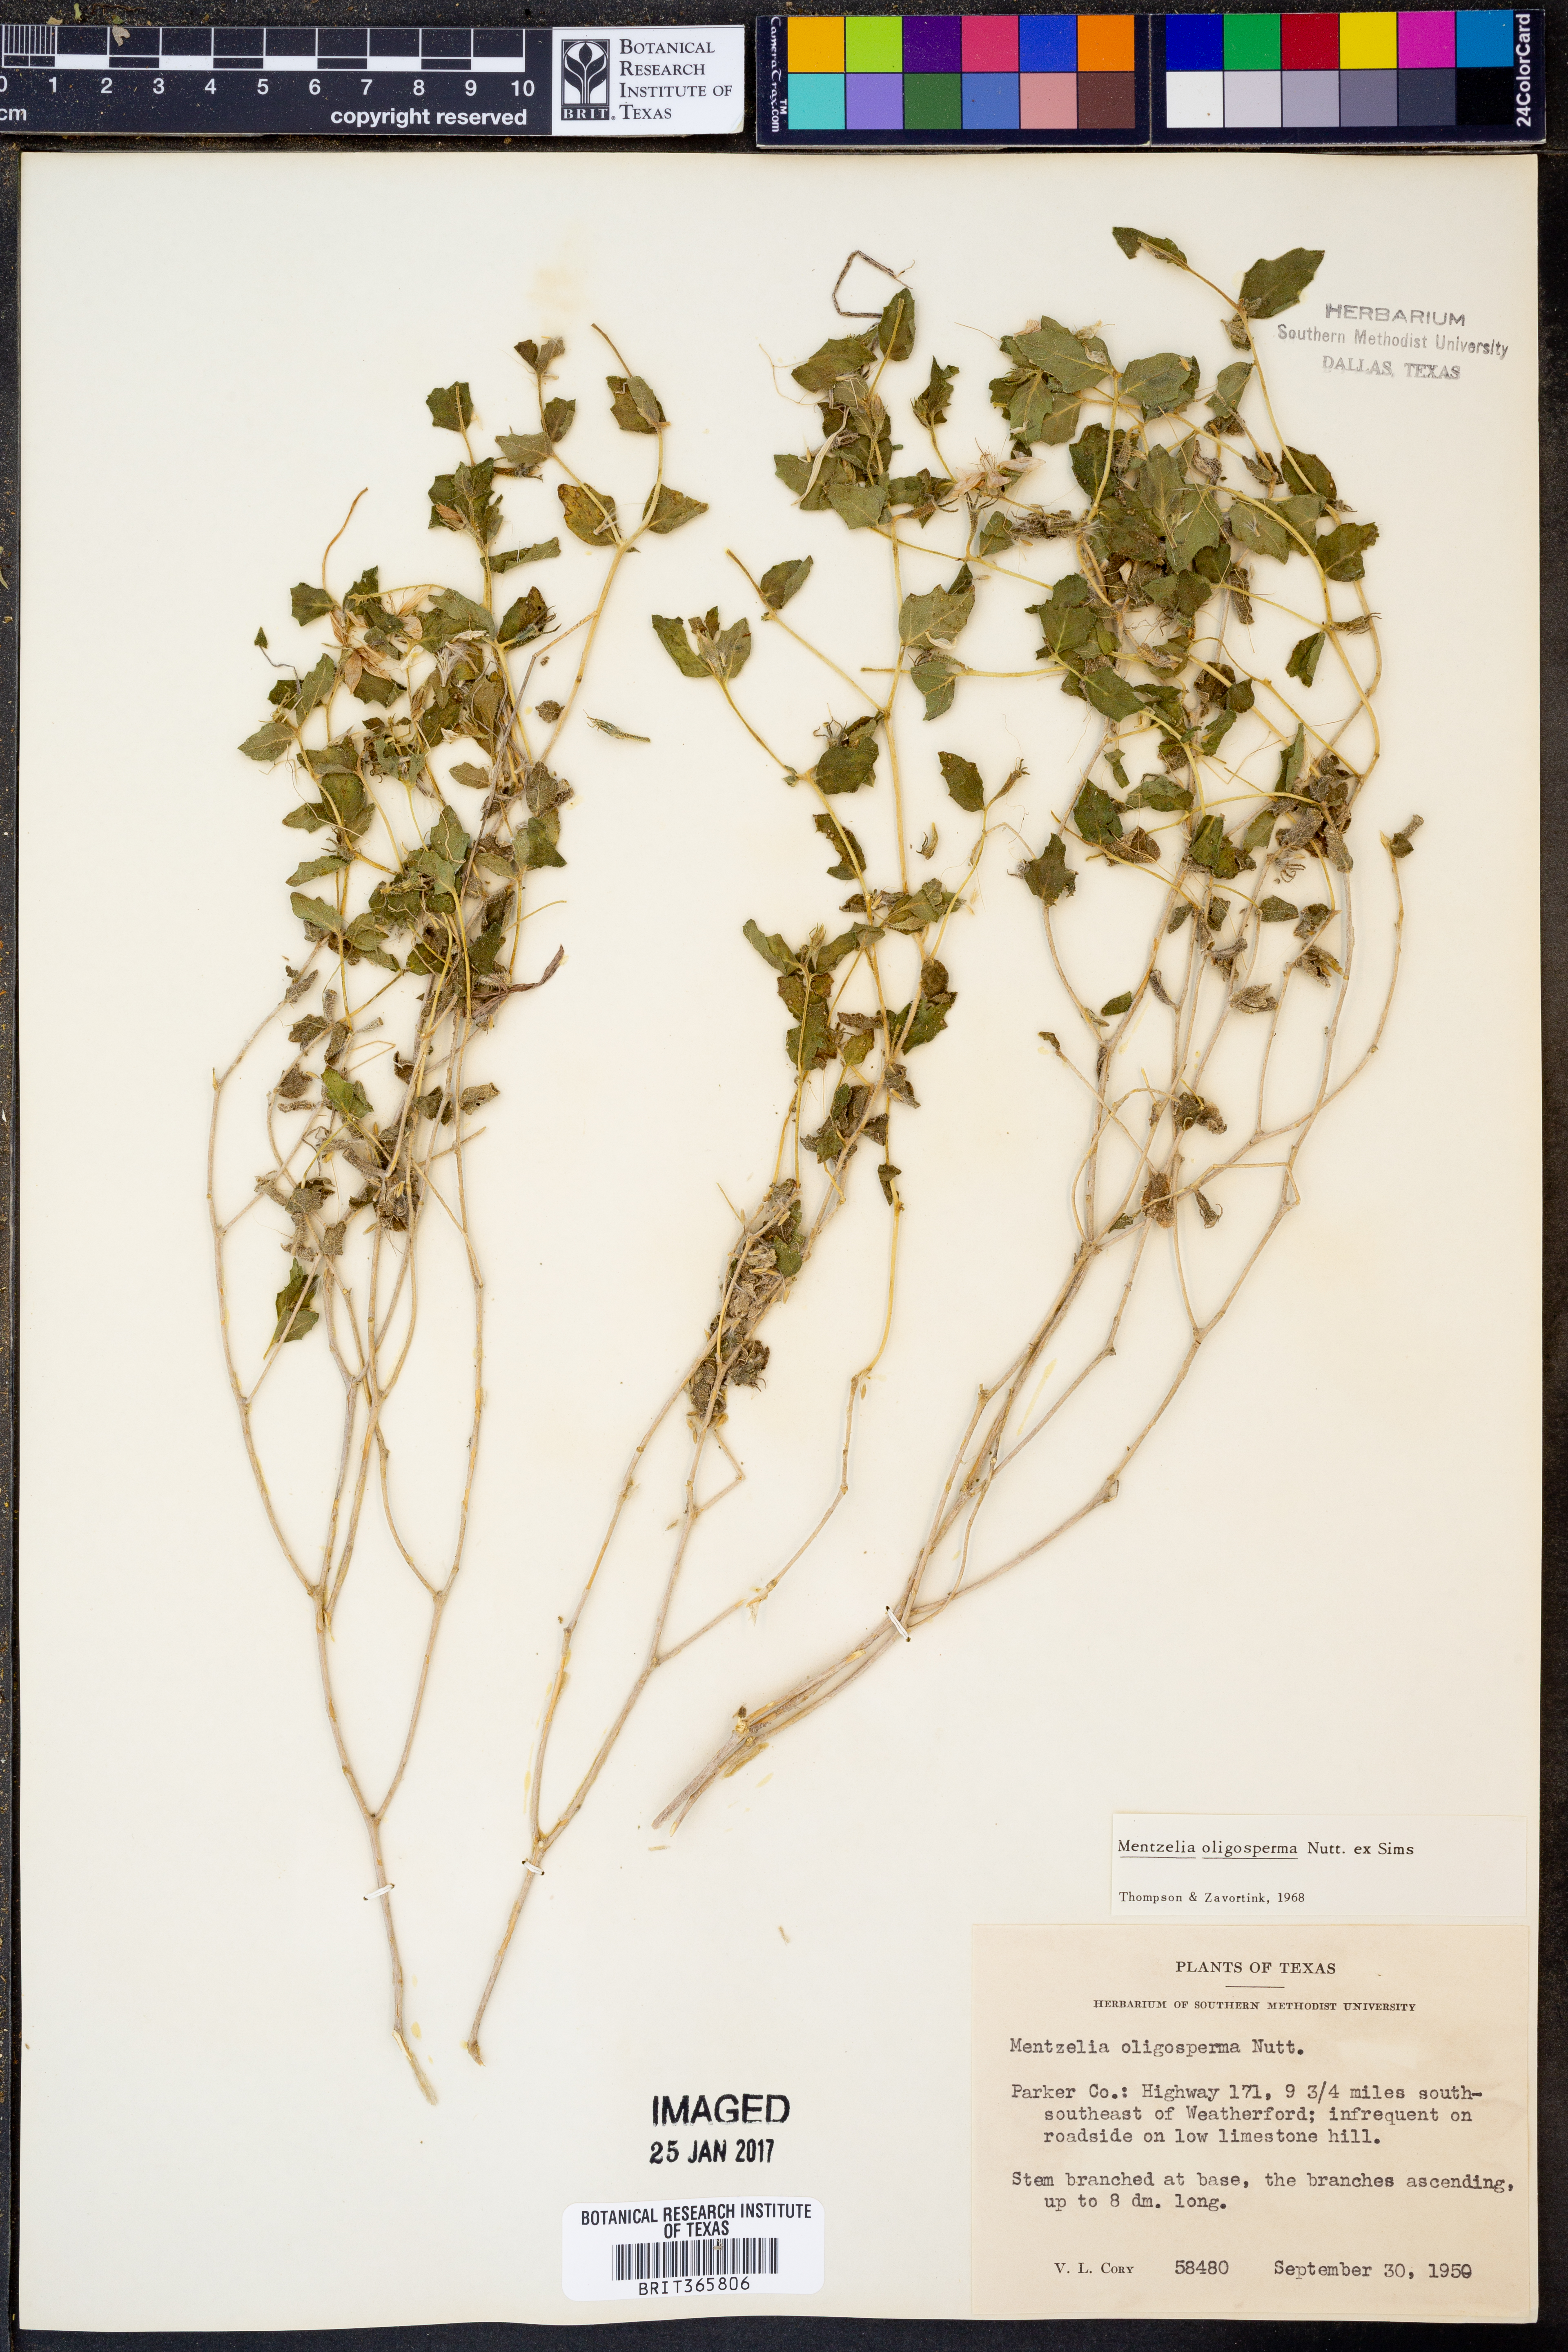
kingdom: Plantae
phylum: Tracheophyta
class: Magnoliopsida
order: Cornales
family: Loasaceae
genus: Mentzelia
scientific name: Mentzelia oligosperma
